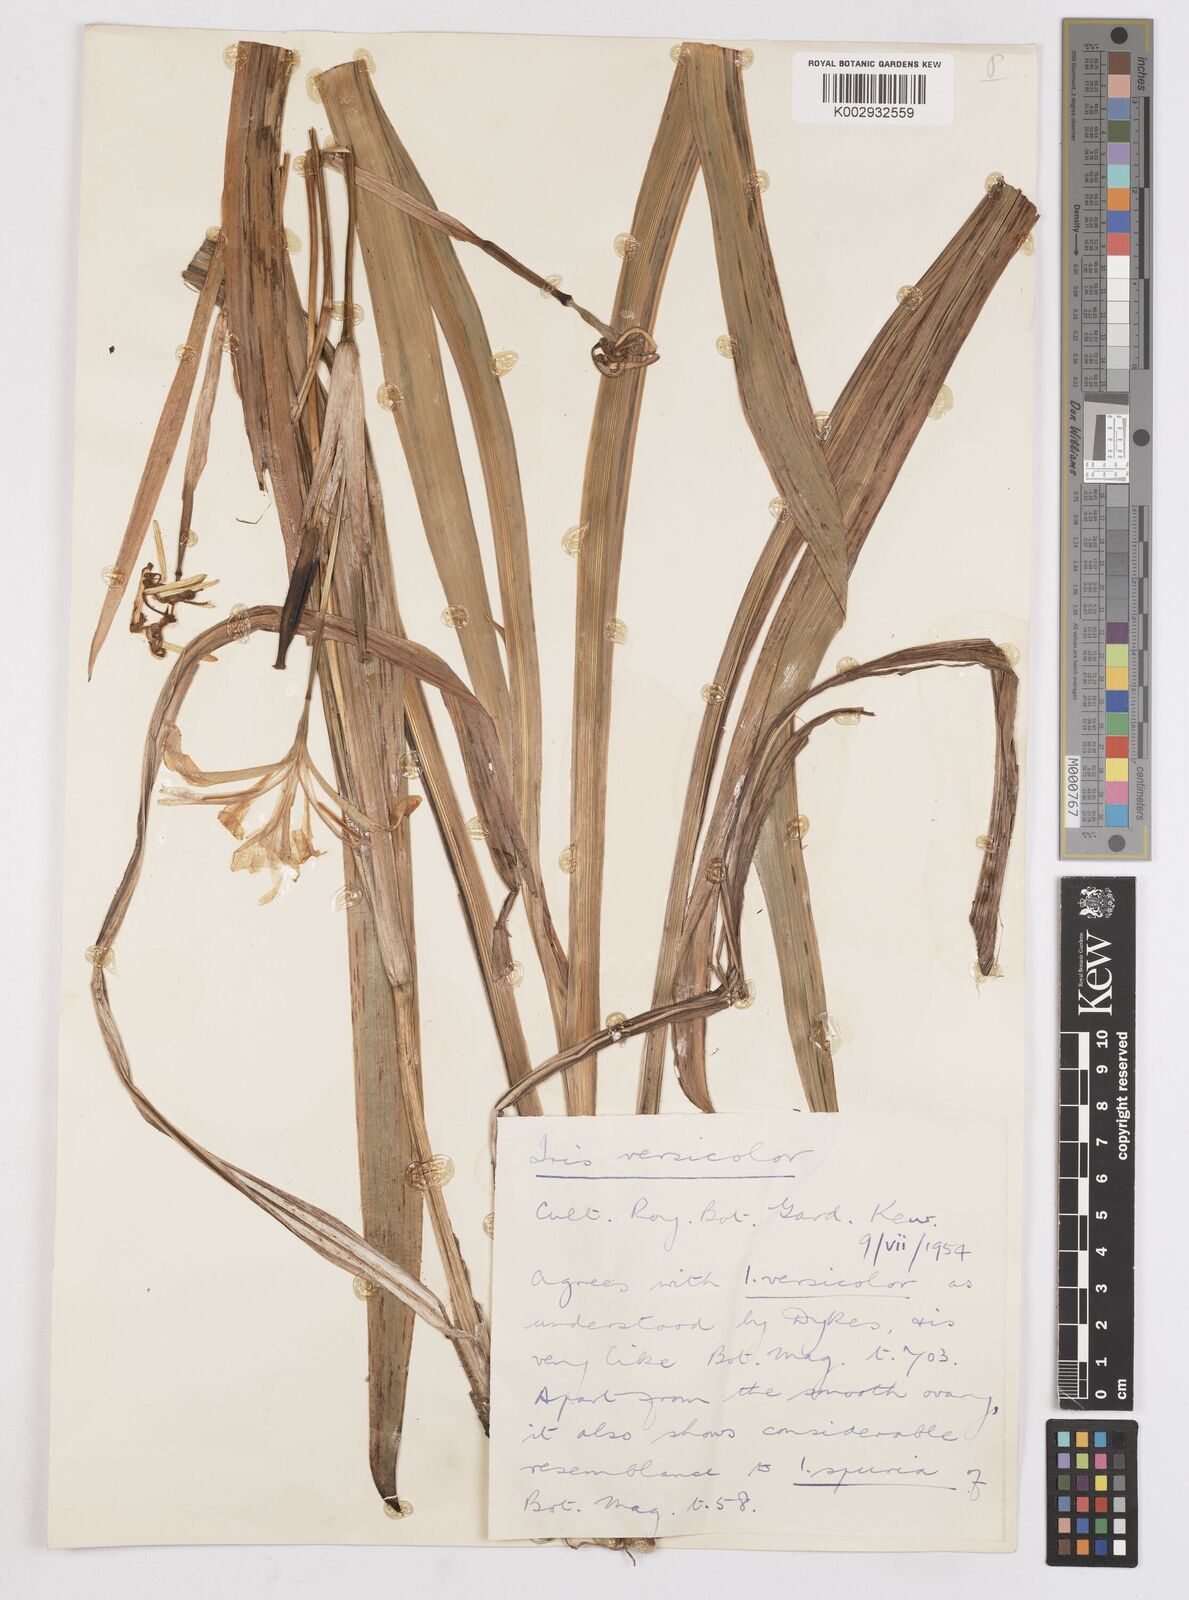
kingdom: Plantae
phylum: Tracheophyta
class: Liliopsida
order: Asparagales
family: Iridaceae
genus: Iris
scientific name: Iris versicolor
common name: Purple iris
